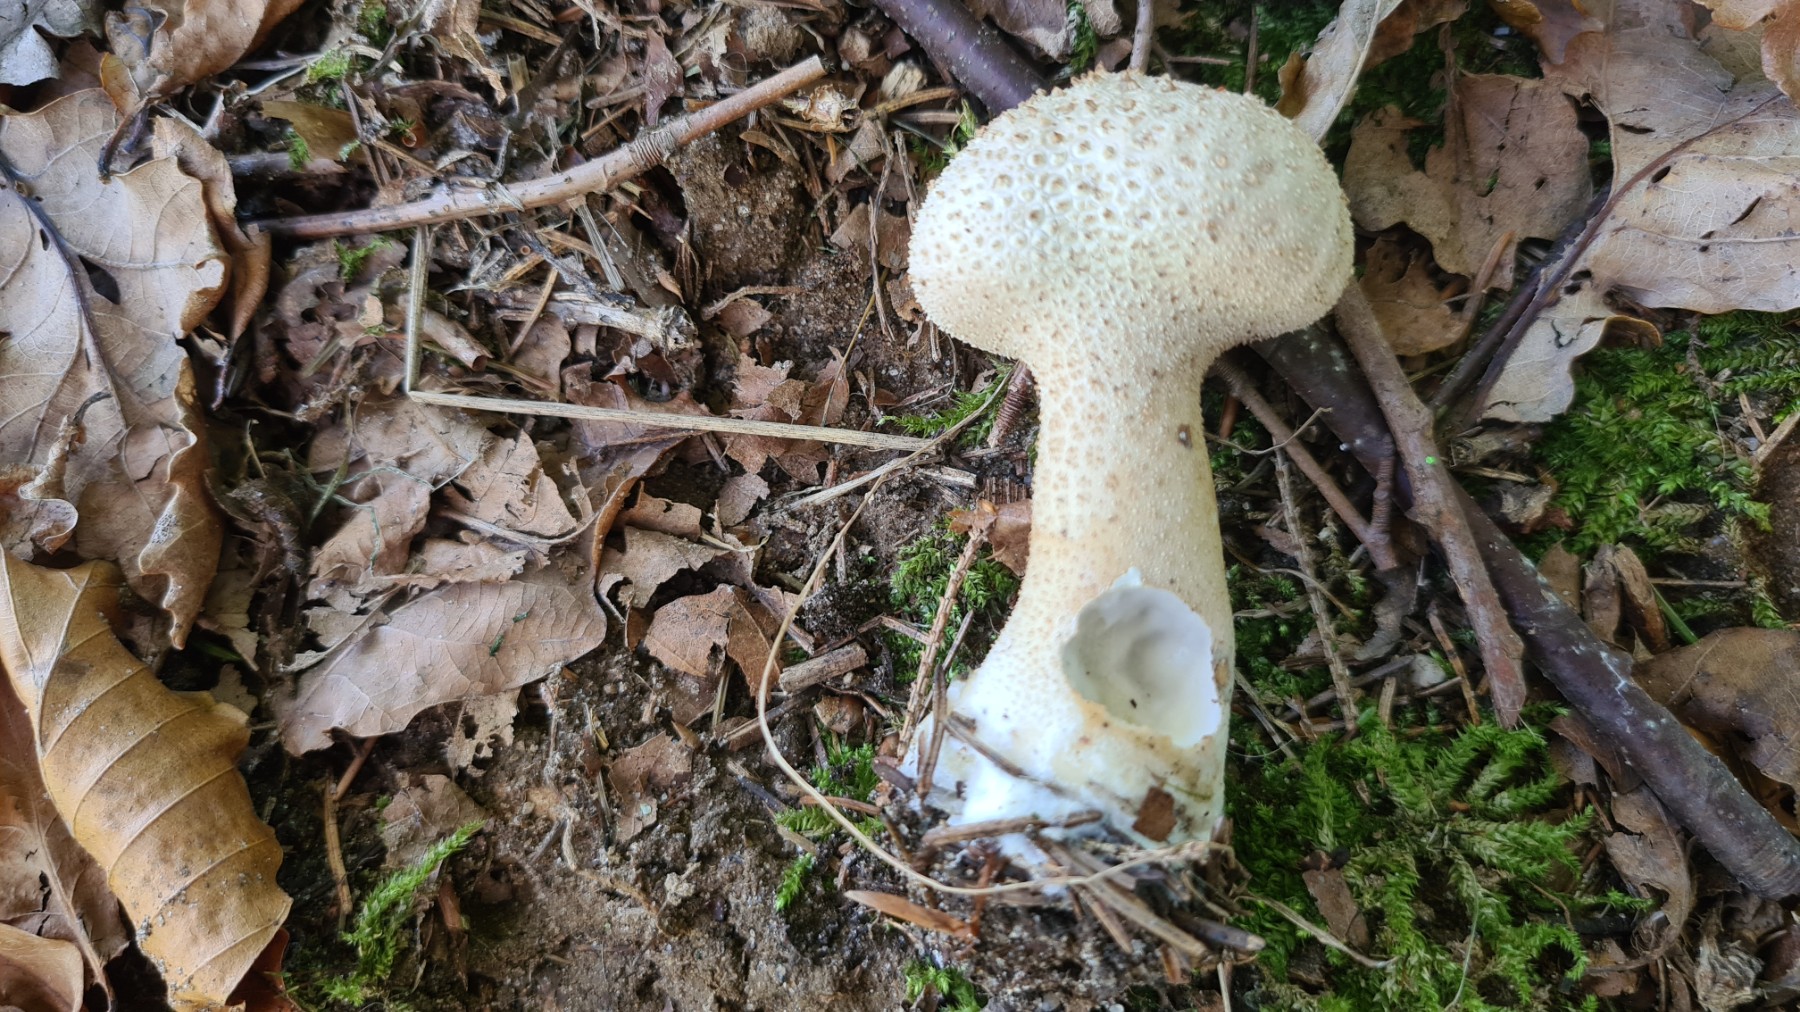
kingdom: Fungi
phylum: Basidiomycota
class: Agaricomycetes
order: Agaricales
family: Lycoperdaceae
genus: Lycoperdon
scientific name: Lycoperdon excipuliforme
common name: højstokket støvbold
